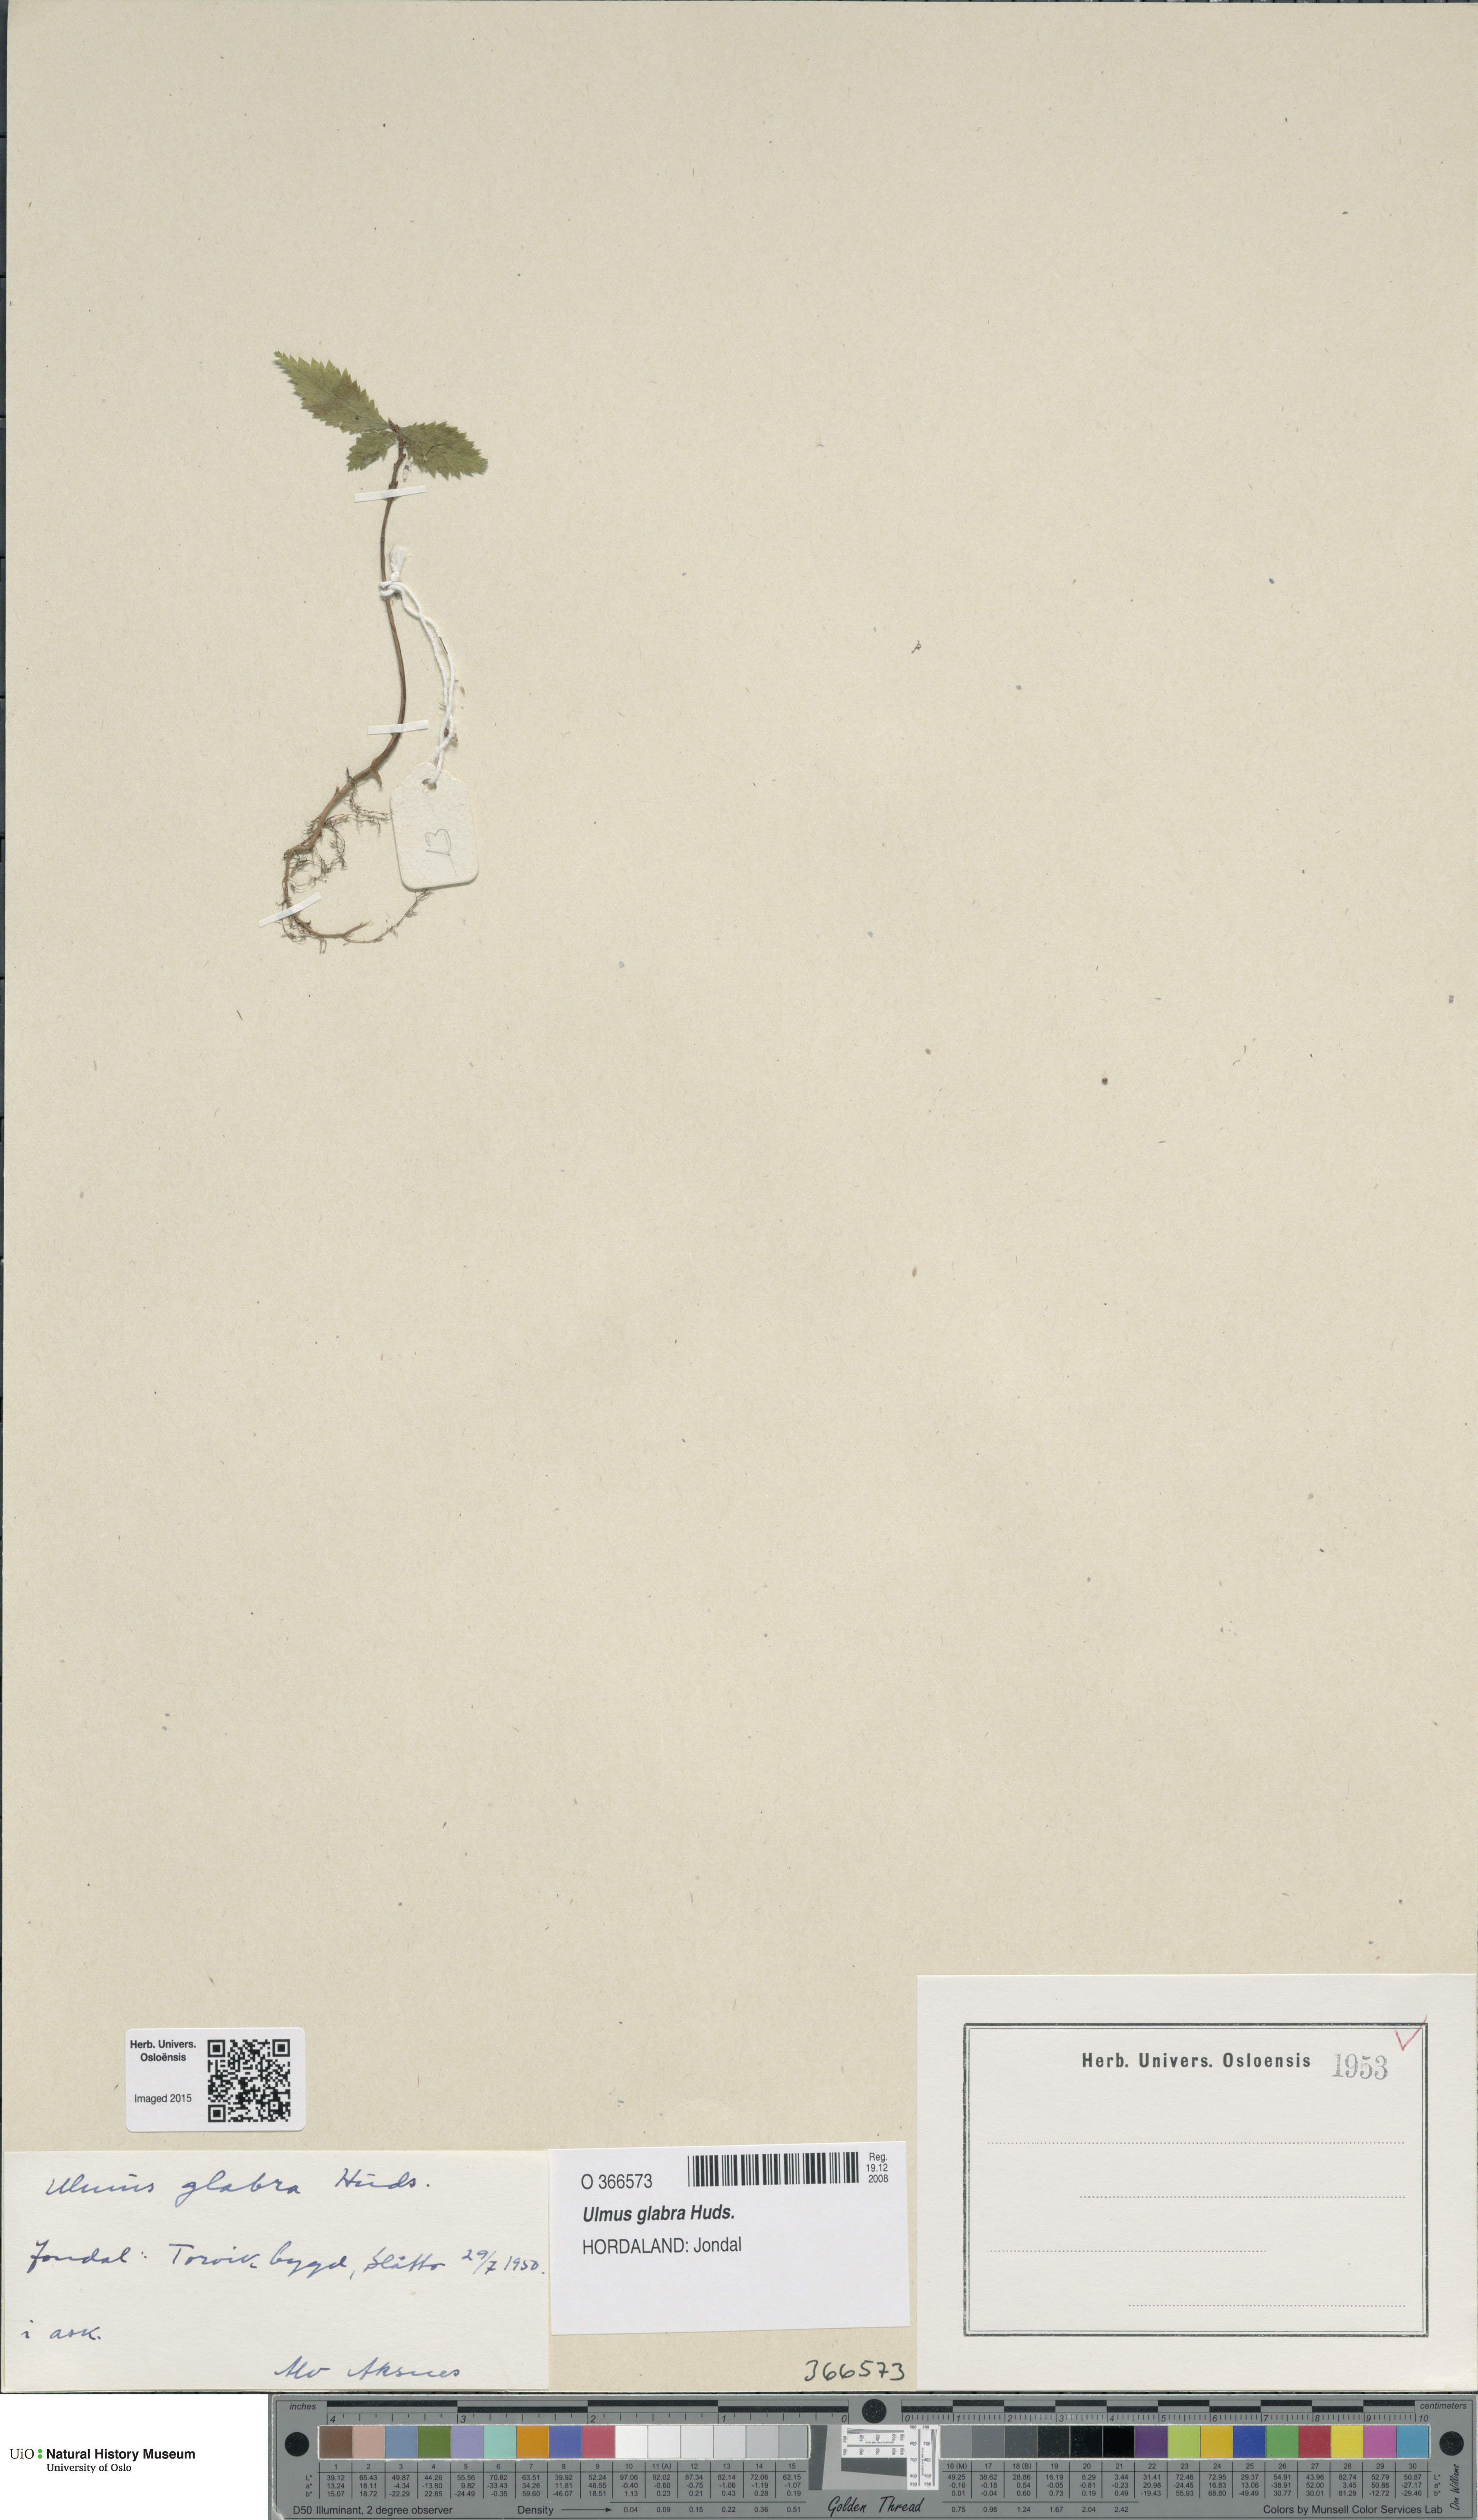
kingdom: Plantae
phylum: Tracheophyta
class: Magnoliopsida
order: Rosales
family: Ulmaceae
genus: Ulmus
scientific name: Ulmus glabra
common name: Wych elm
